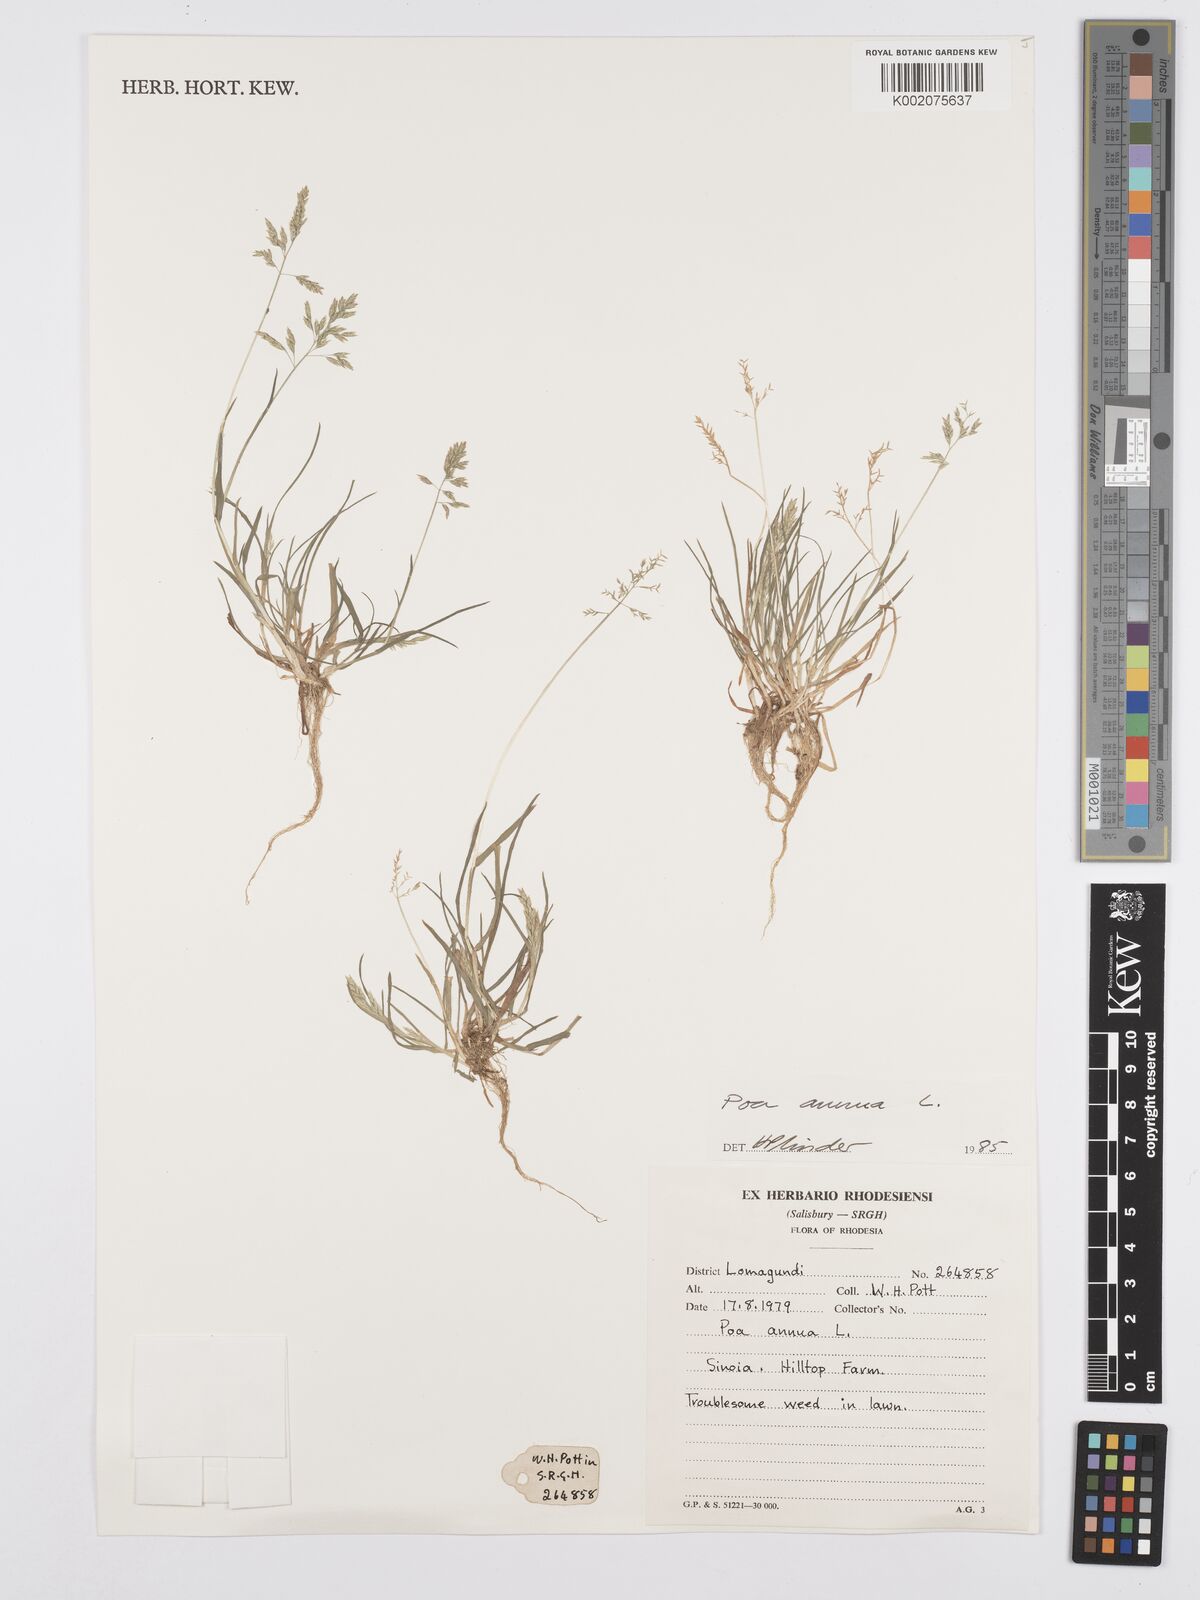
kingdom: Plantae
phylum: Tracheophyta
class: Liliopsida
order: Poales
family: Poaceae
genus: Poa
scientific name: Poa annua
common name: Annual bluegrass
